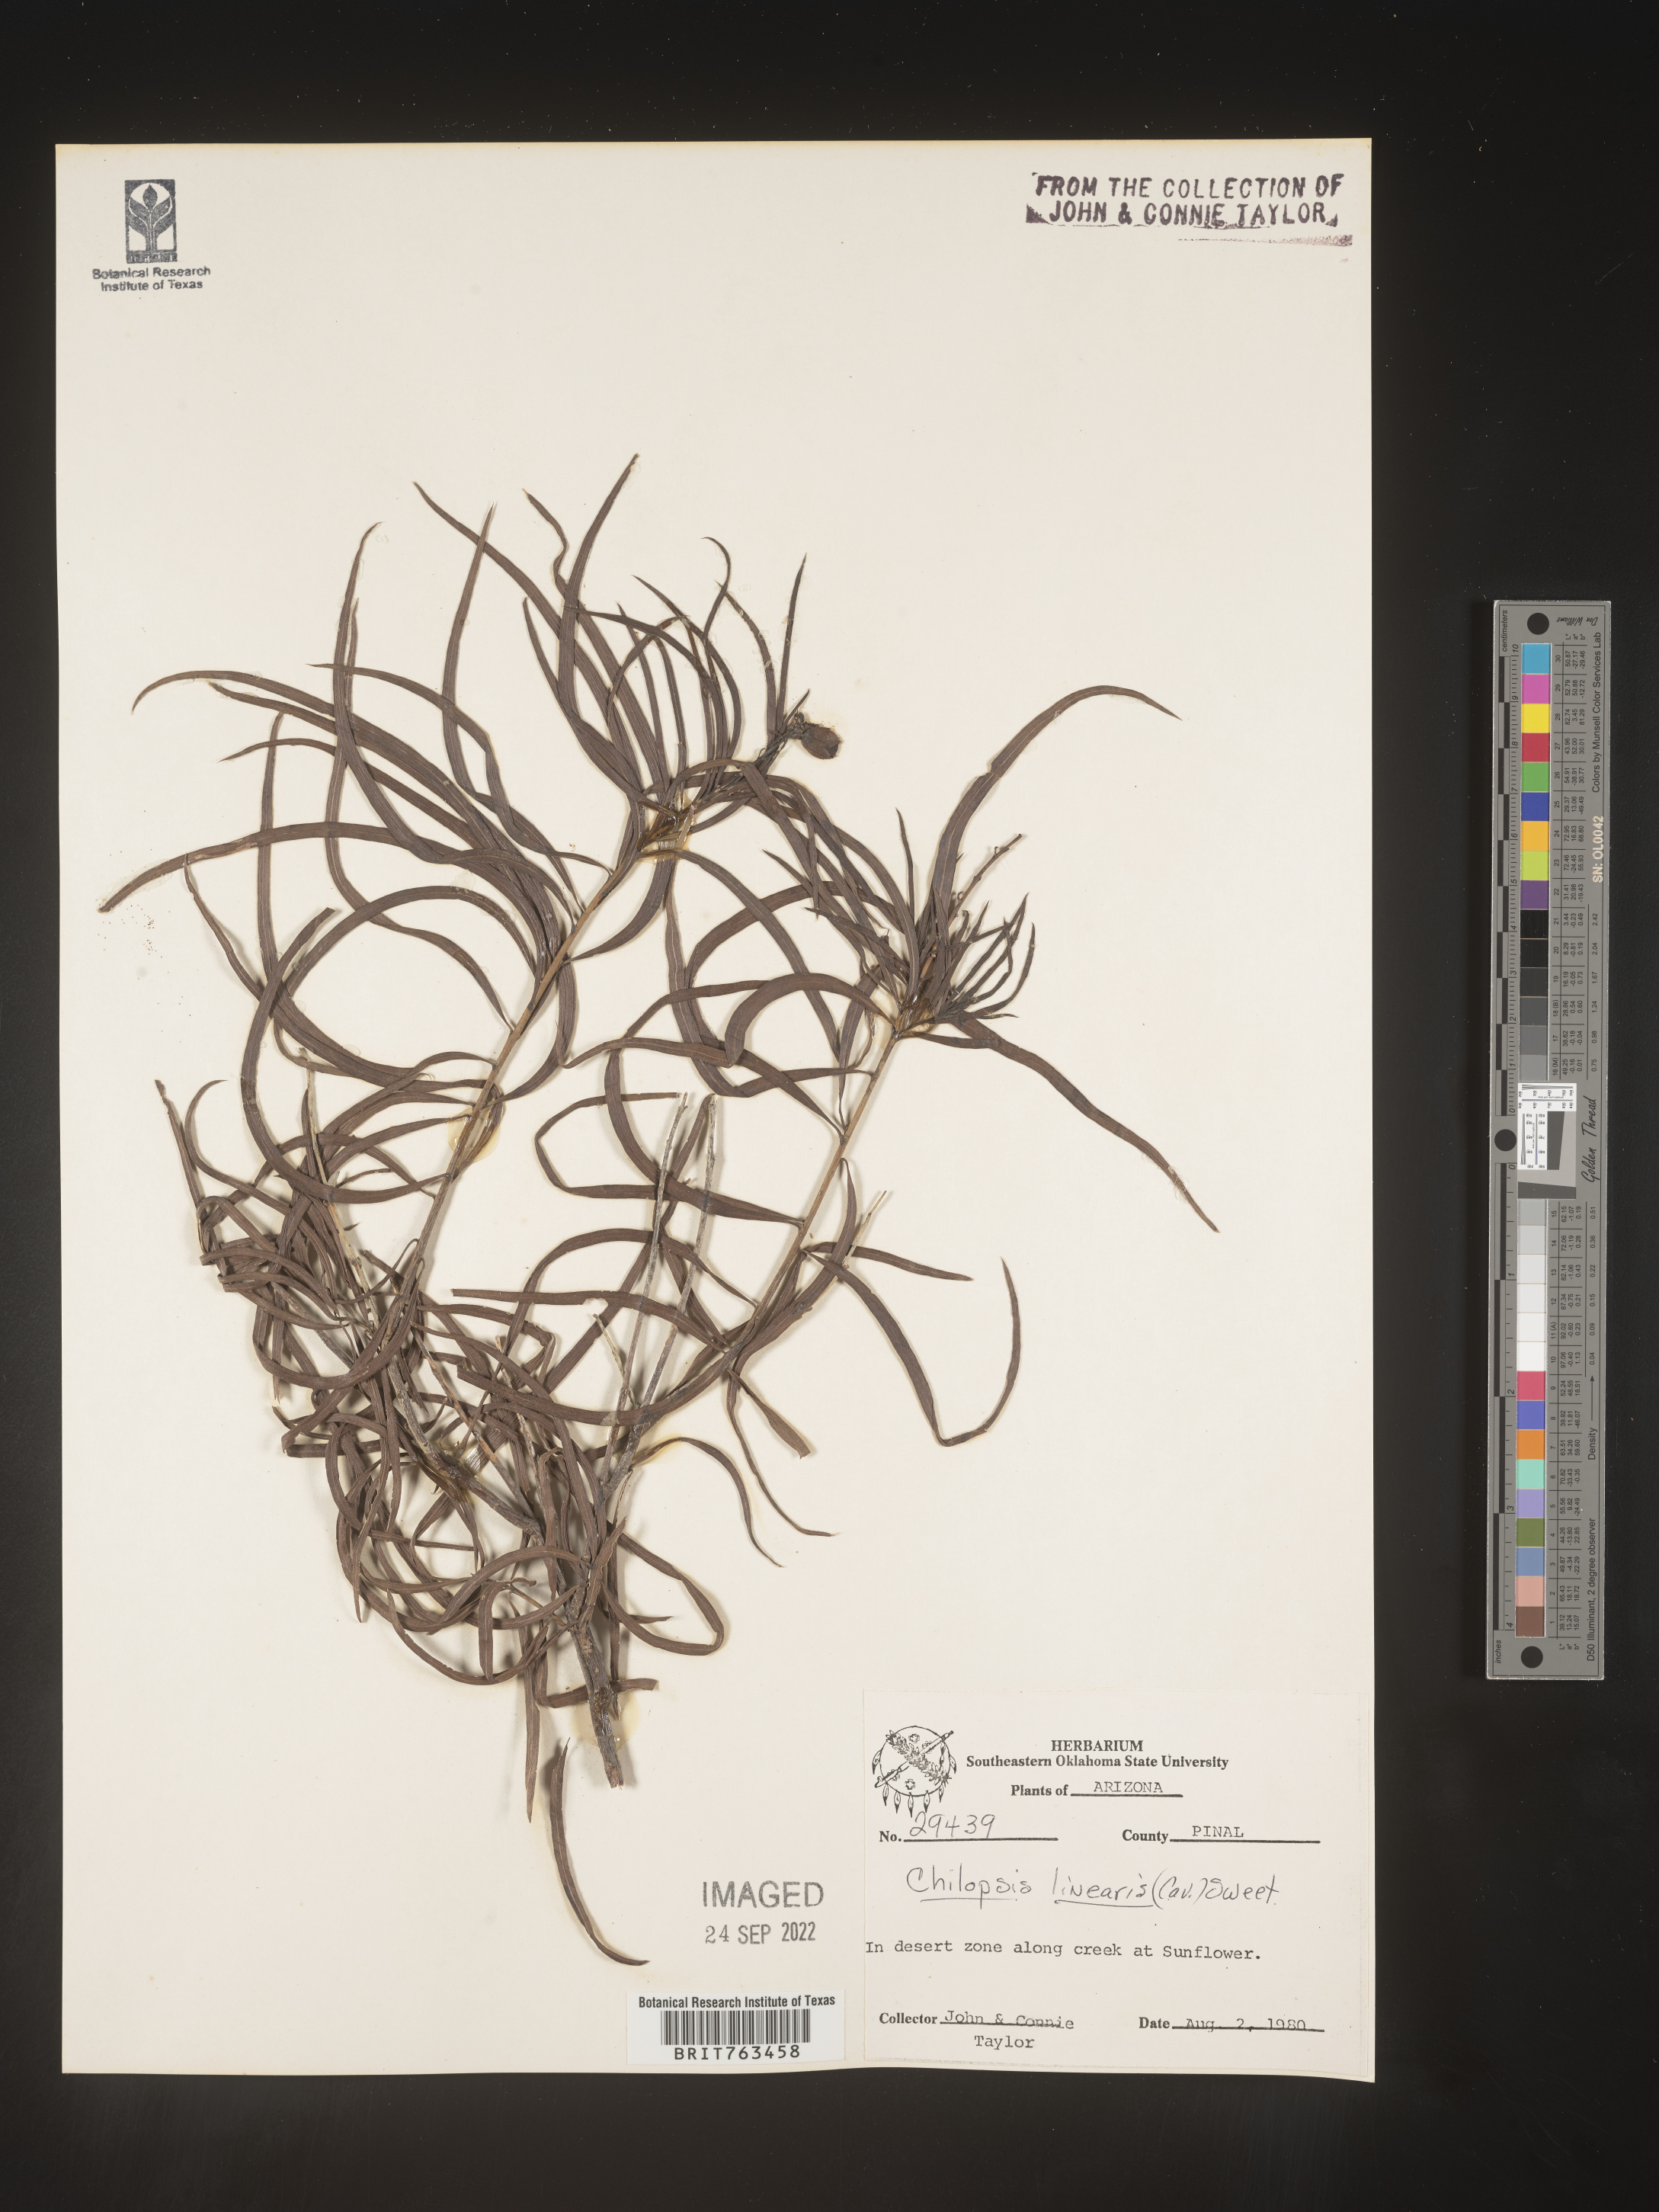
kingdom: Plantae
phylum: Tracheophyta
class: Magnoliopsida
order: Lamiales
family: Bignoniaceae
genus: Chilopsis
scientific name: Chilopsis linearis
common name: Desert-willow
